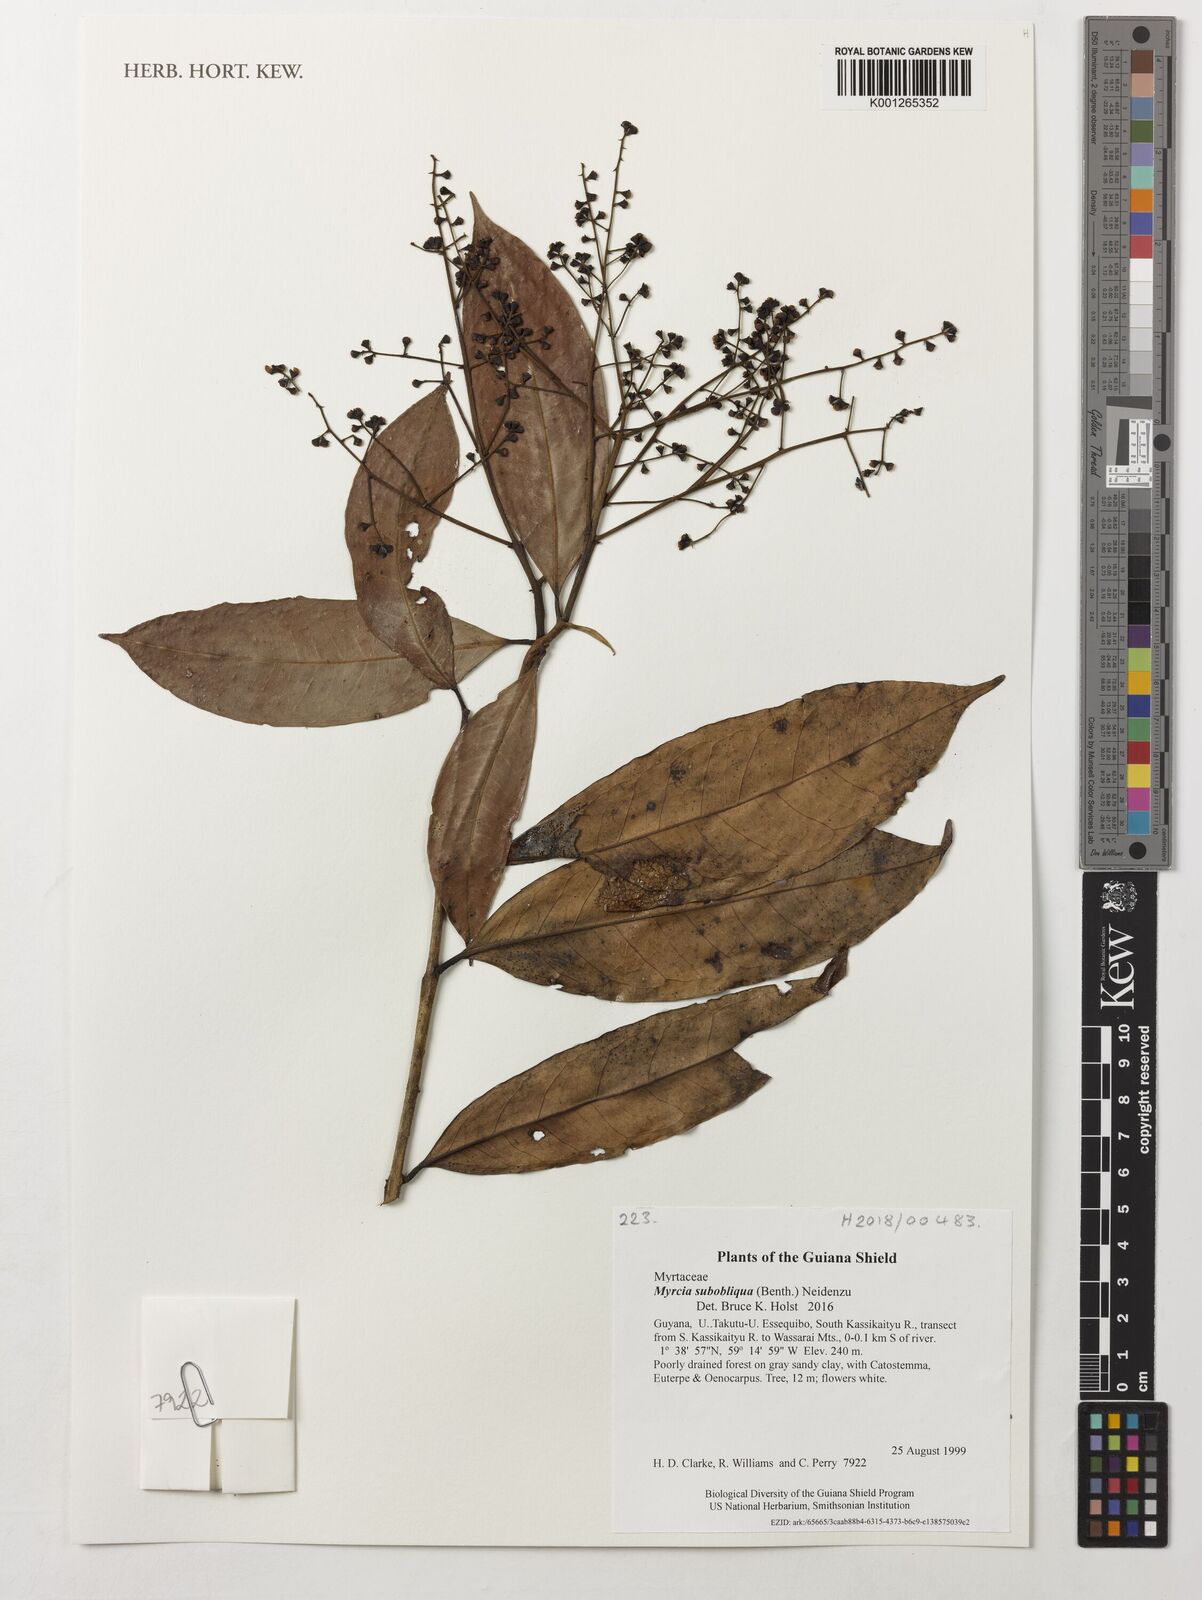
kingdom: Plantae
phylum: Tracheophyta
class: Magnoliopsida
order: Myrtales
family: Myrtaceae
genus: Myrcia
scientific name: Myrcia subobliqua
